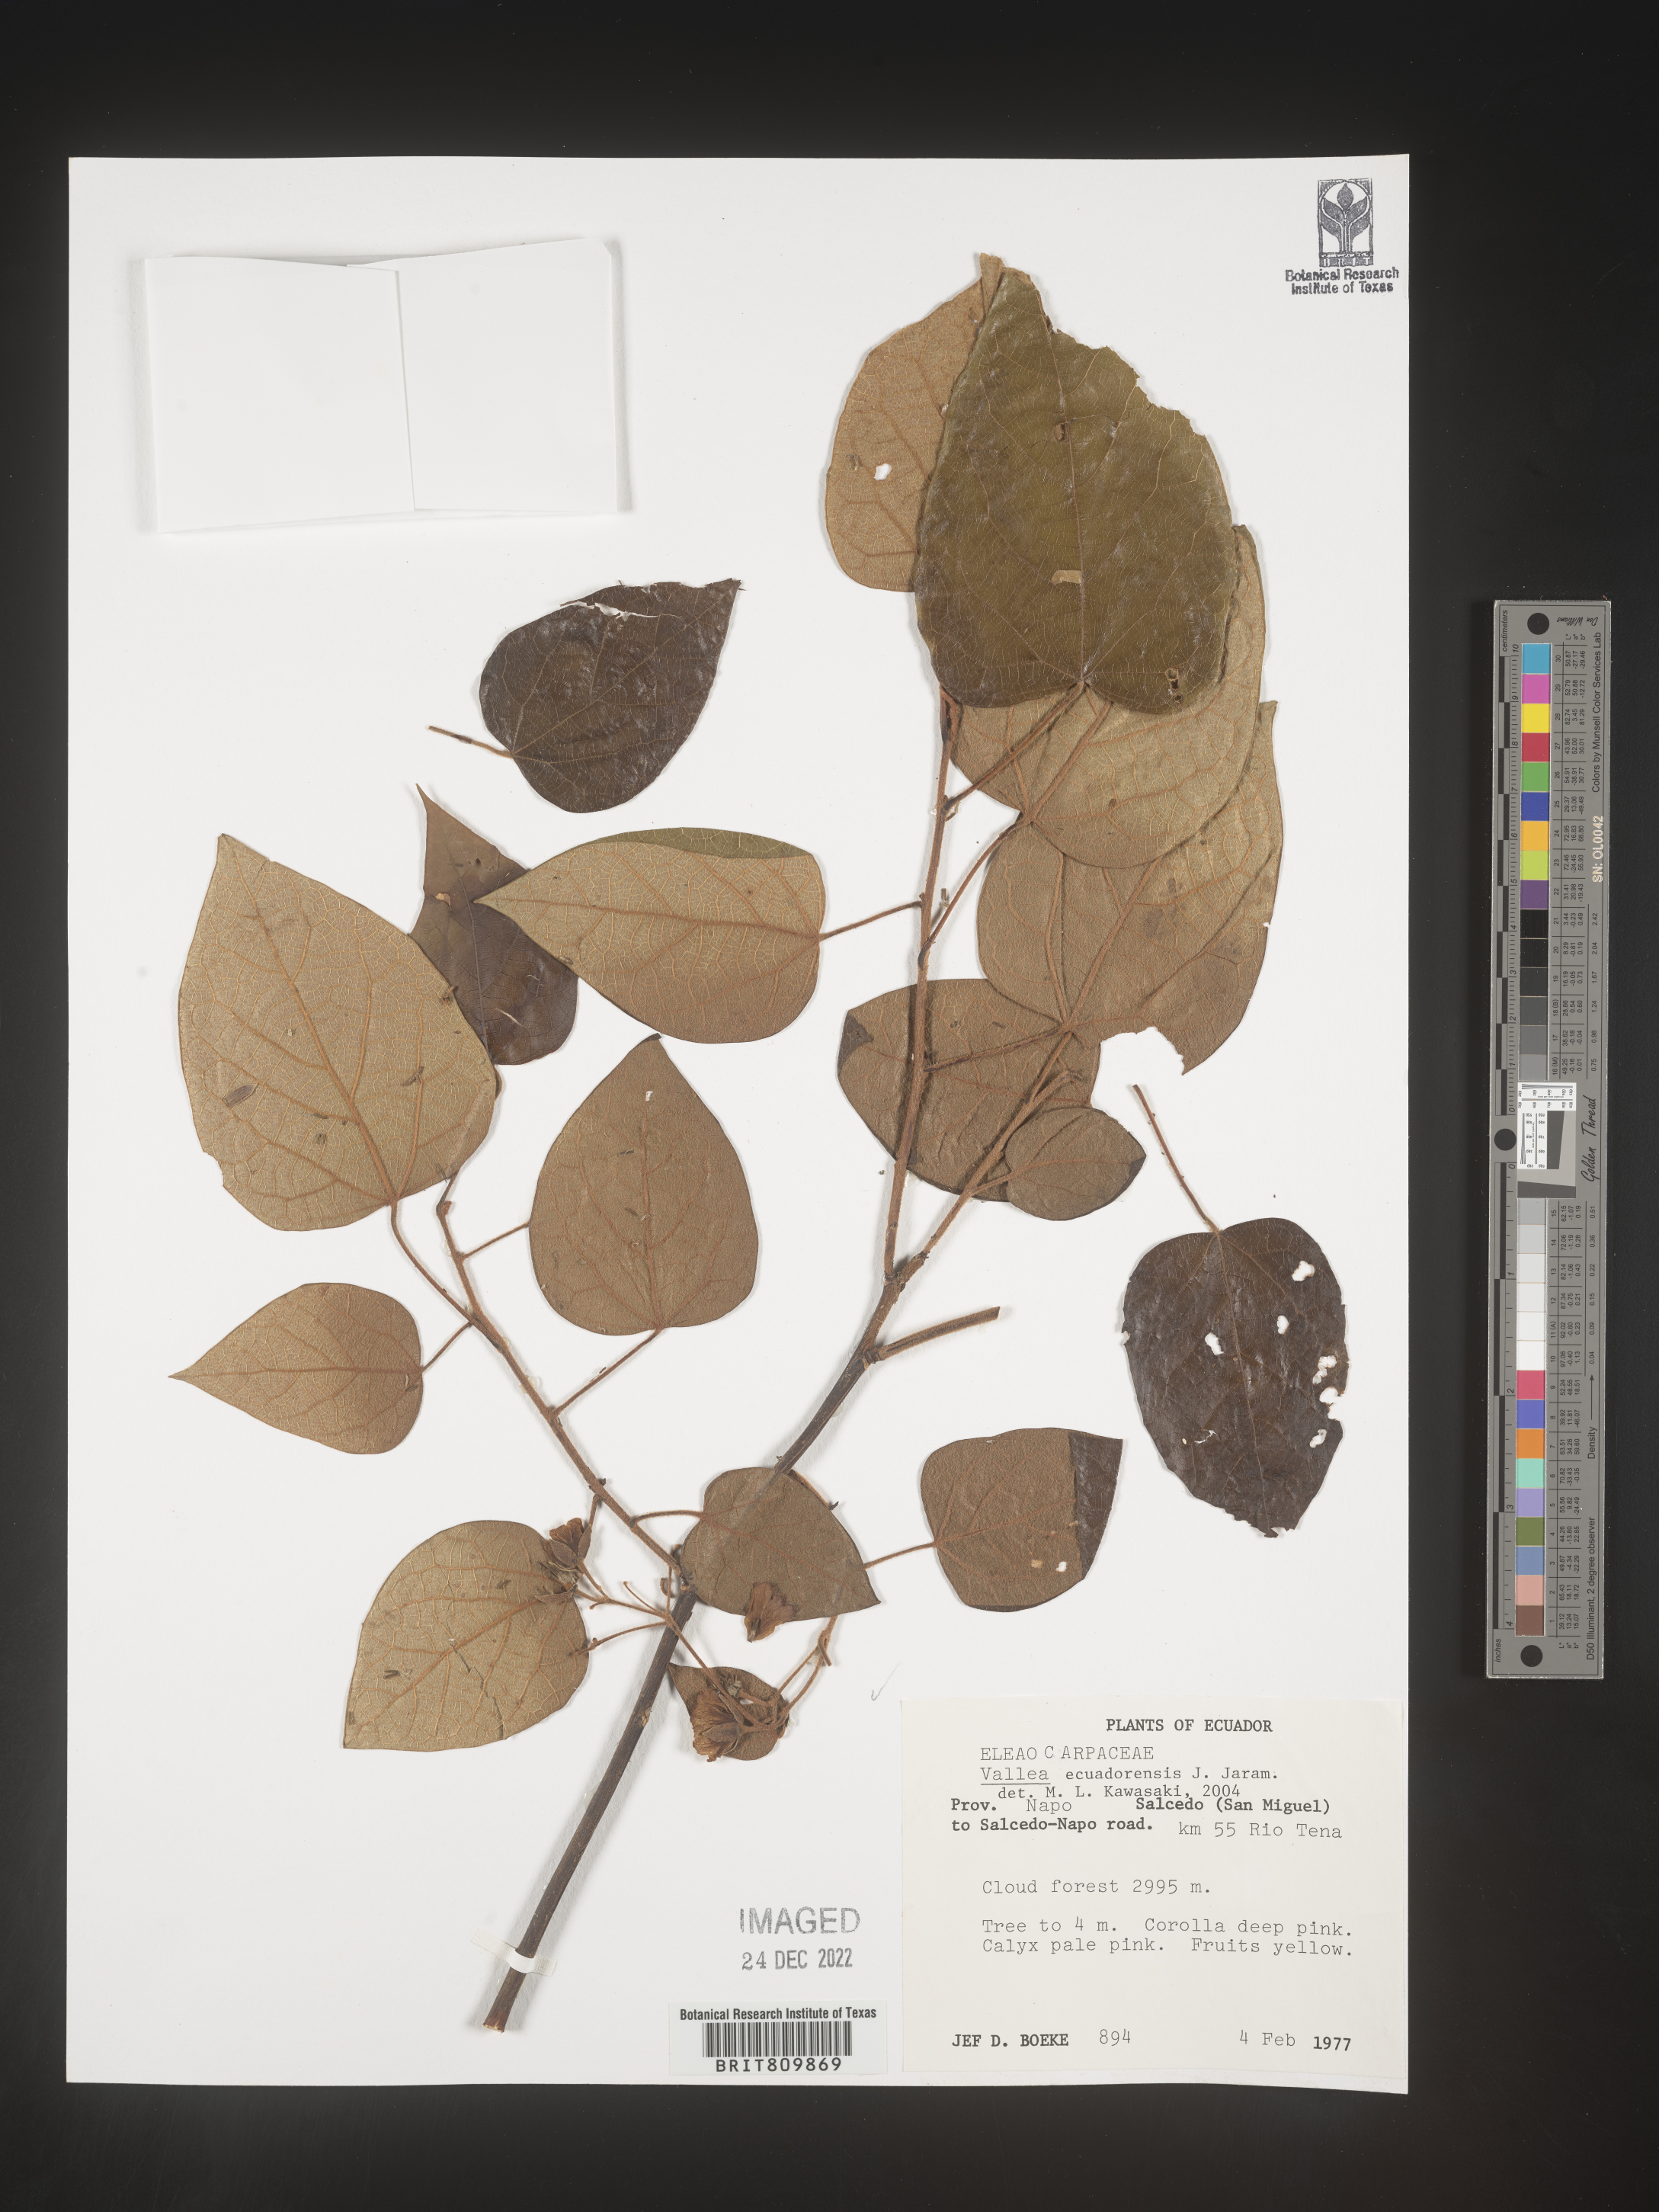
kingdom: Plantae
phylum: Tracheophyta
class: Magnoliopsida
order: Oxalidales
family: Elaeocarpaceae
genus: Vallea
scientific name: Vallea
